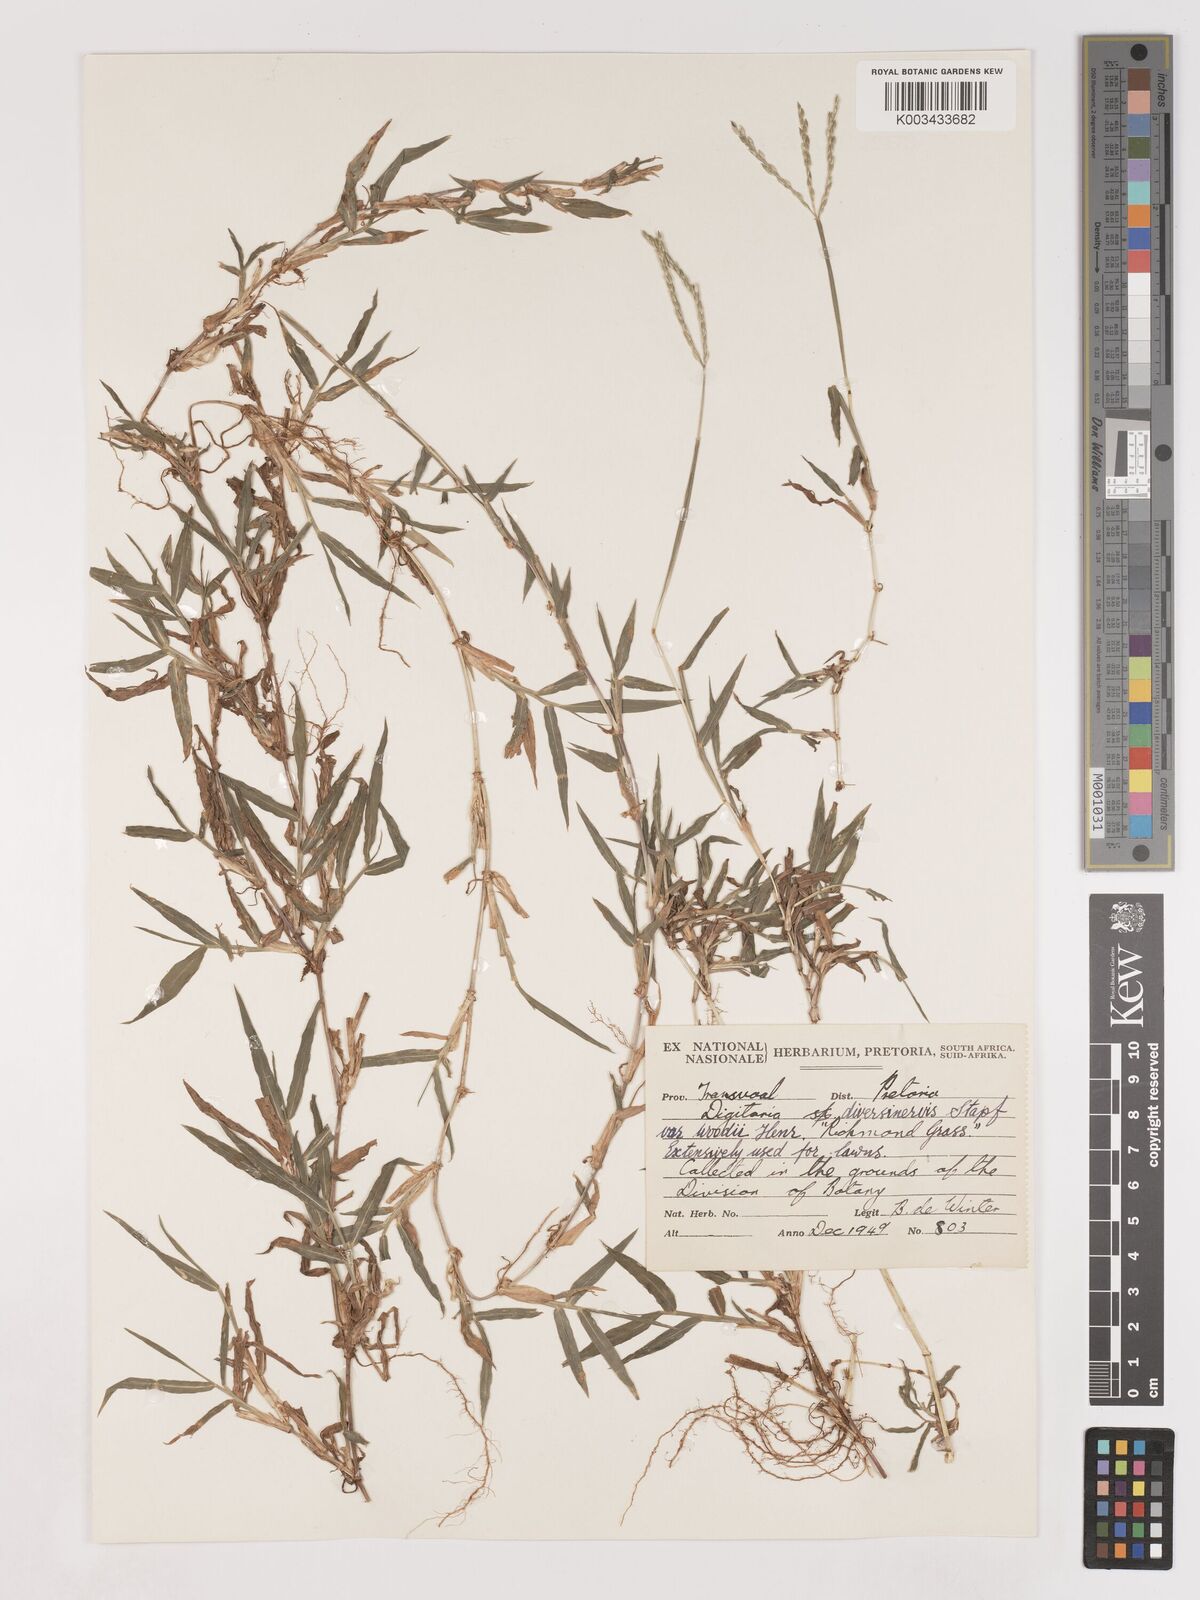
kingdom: Plantae
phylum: Tracheophyta
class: Liliopsida
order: Poales
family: Poaceae
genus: Digitaria
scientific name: Digitaria diversinervis
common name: Richmond finger grass
